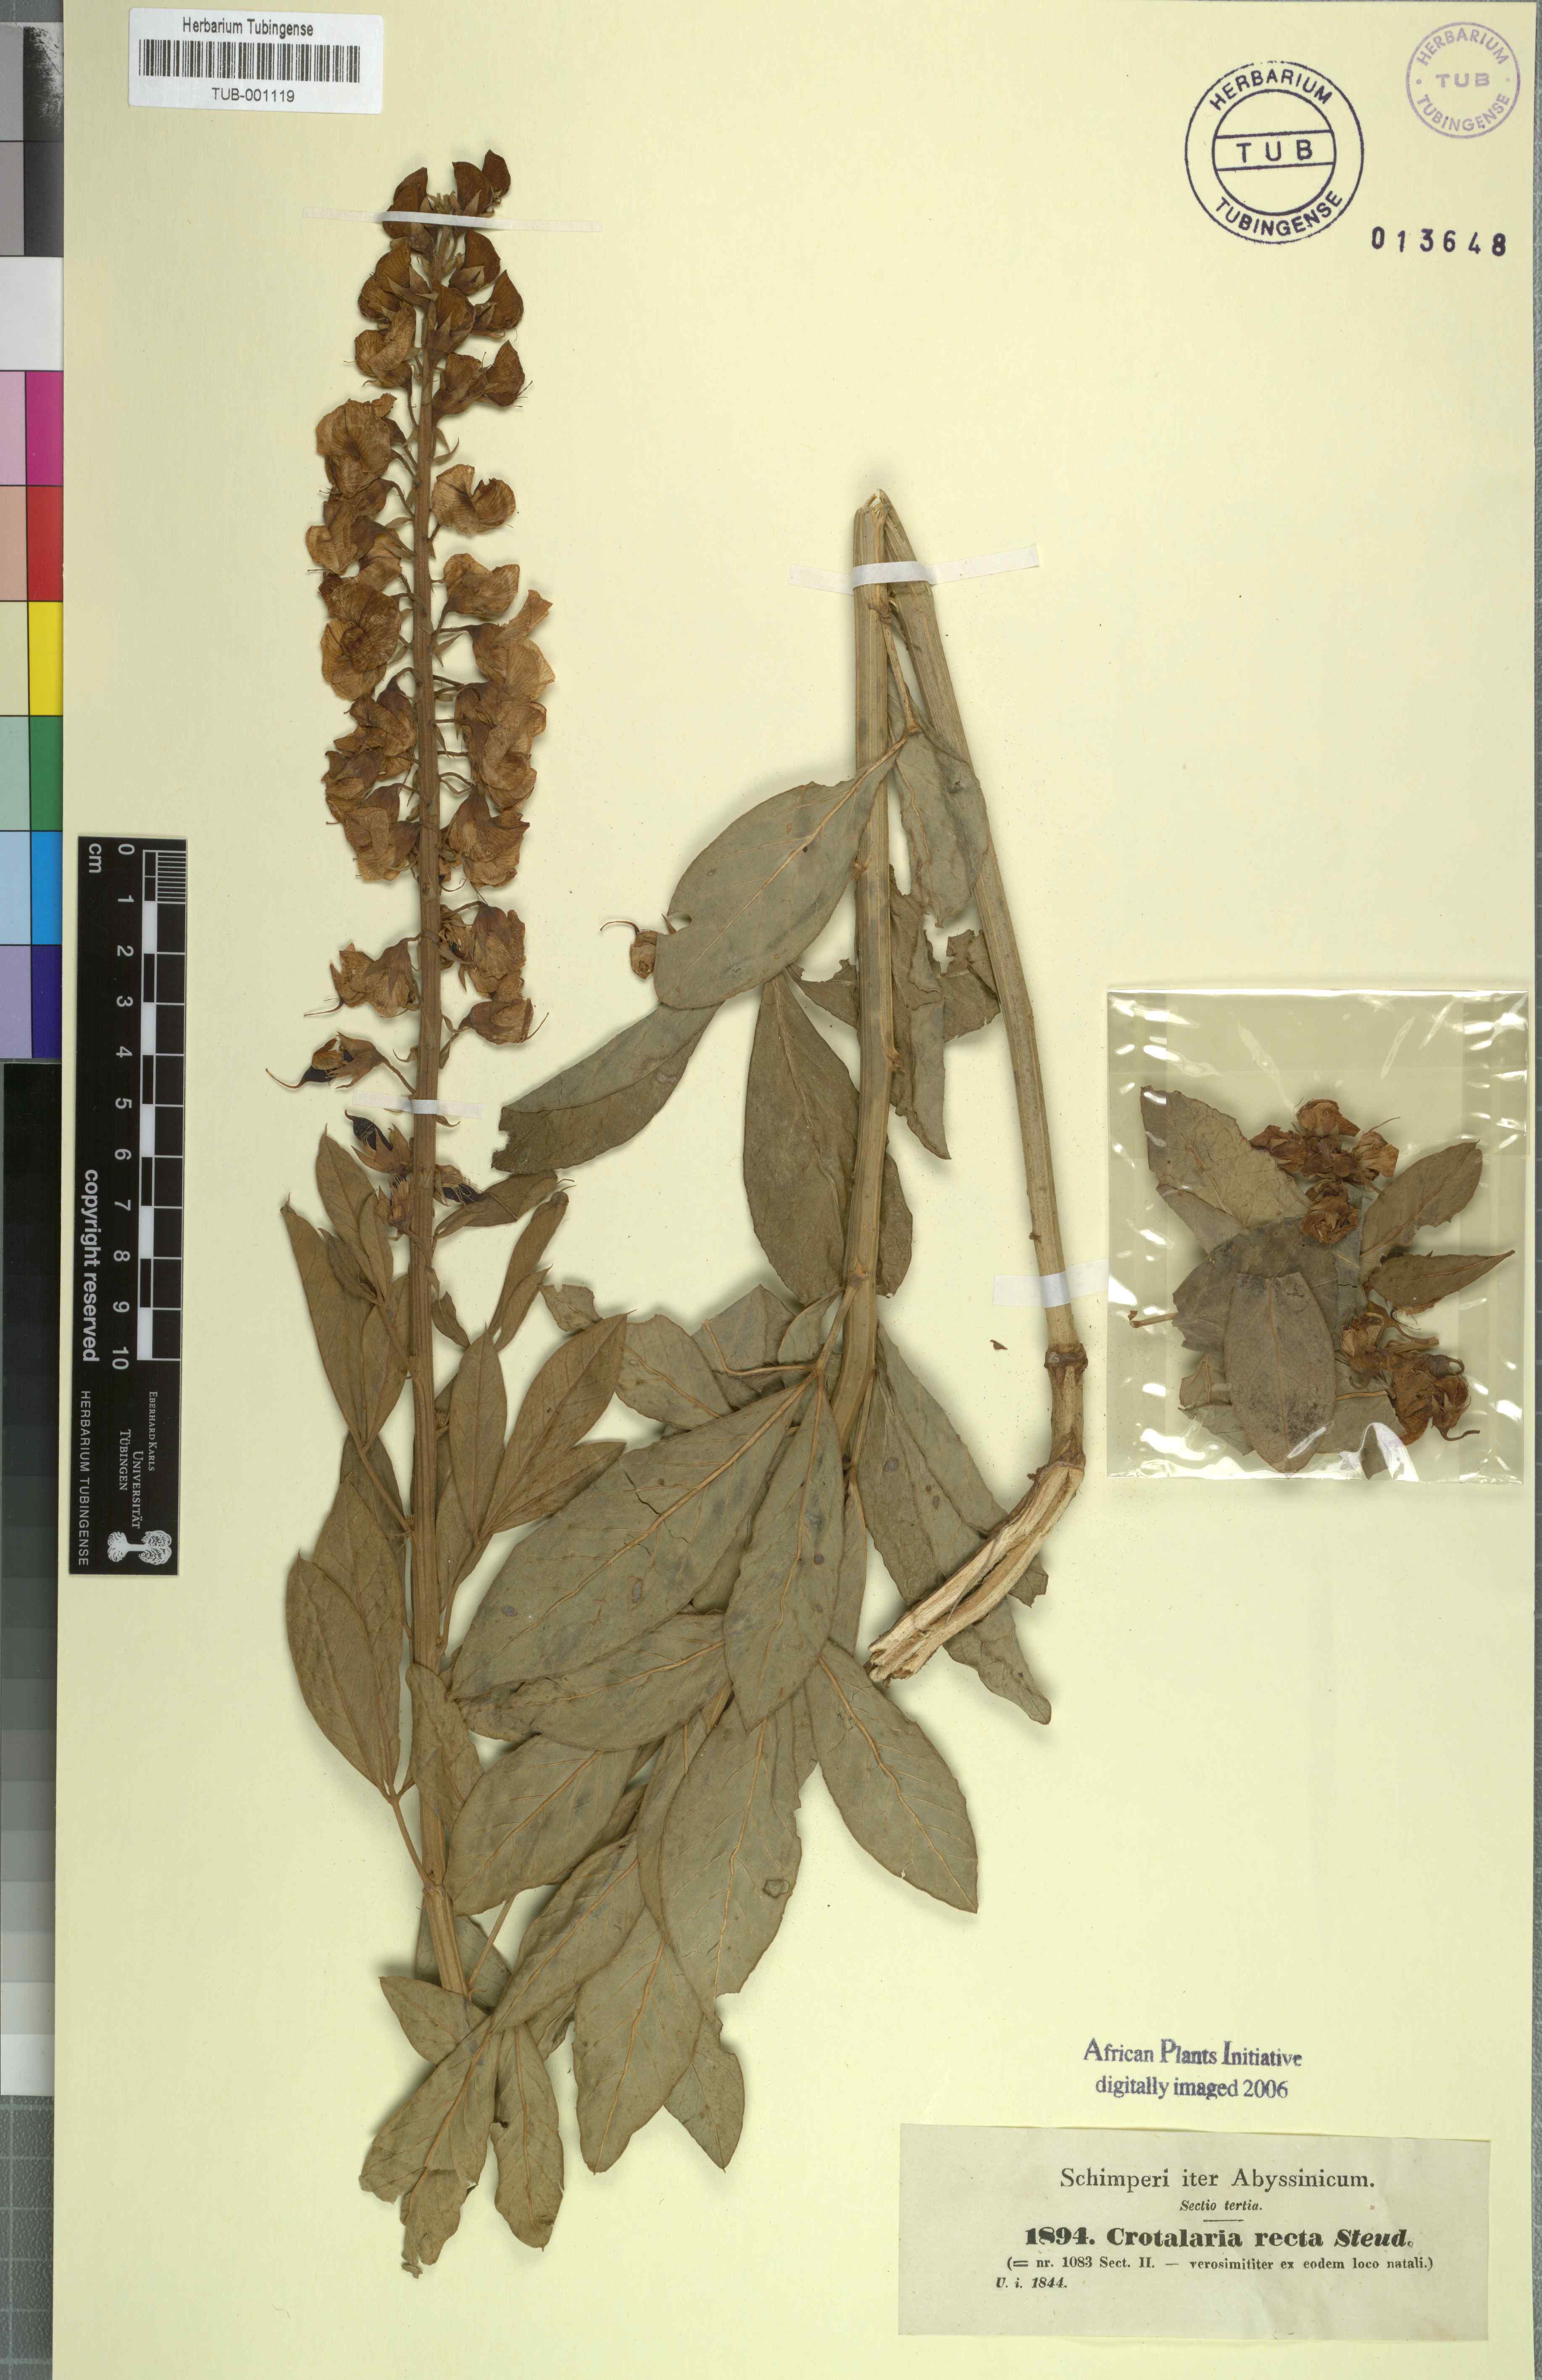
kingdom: Plantae
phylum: Tracheophyta
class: Magnoliopsida
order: Fabales
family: Fabaceae
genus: Crotalaria
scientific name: Crotalaria recta
